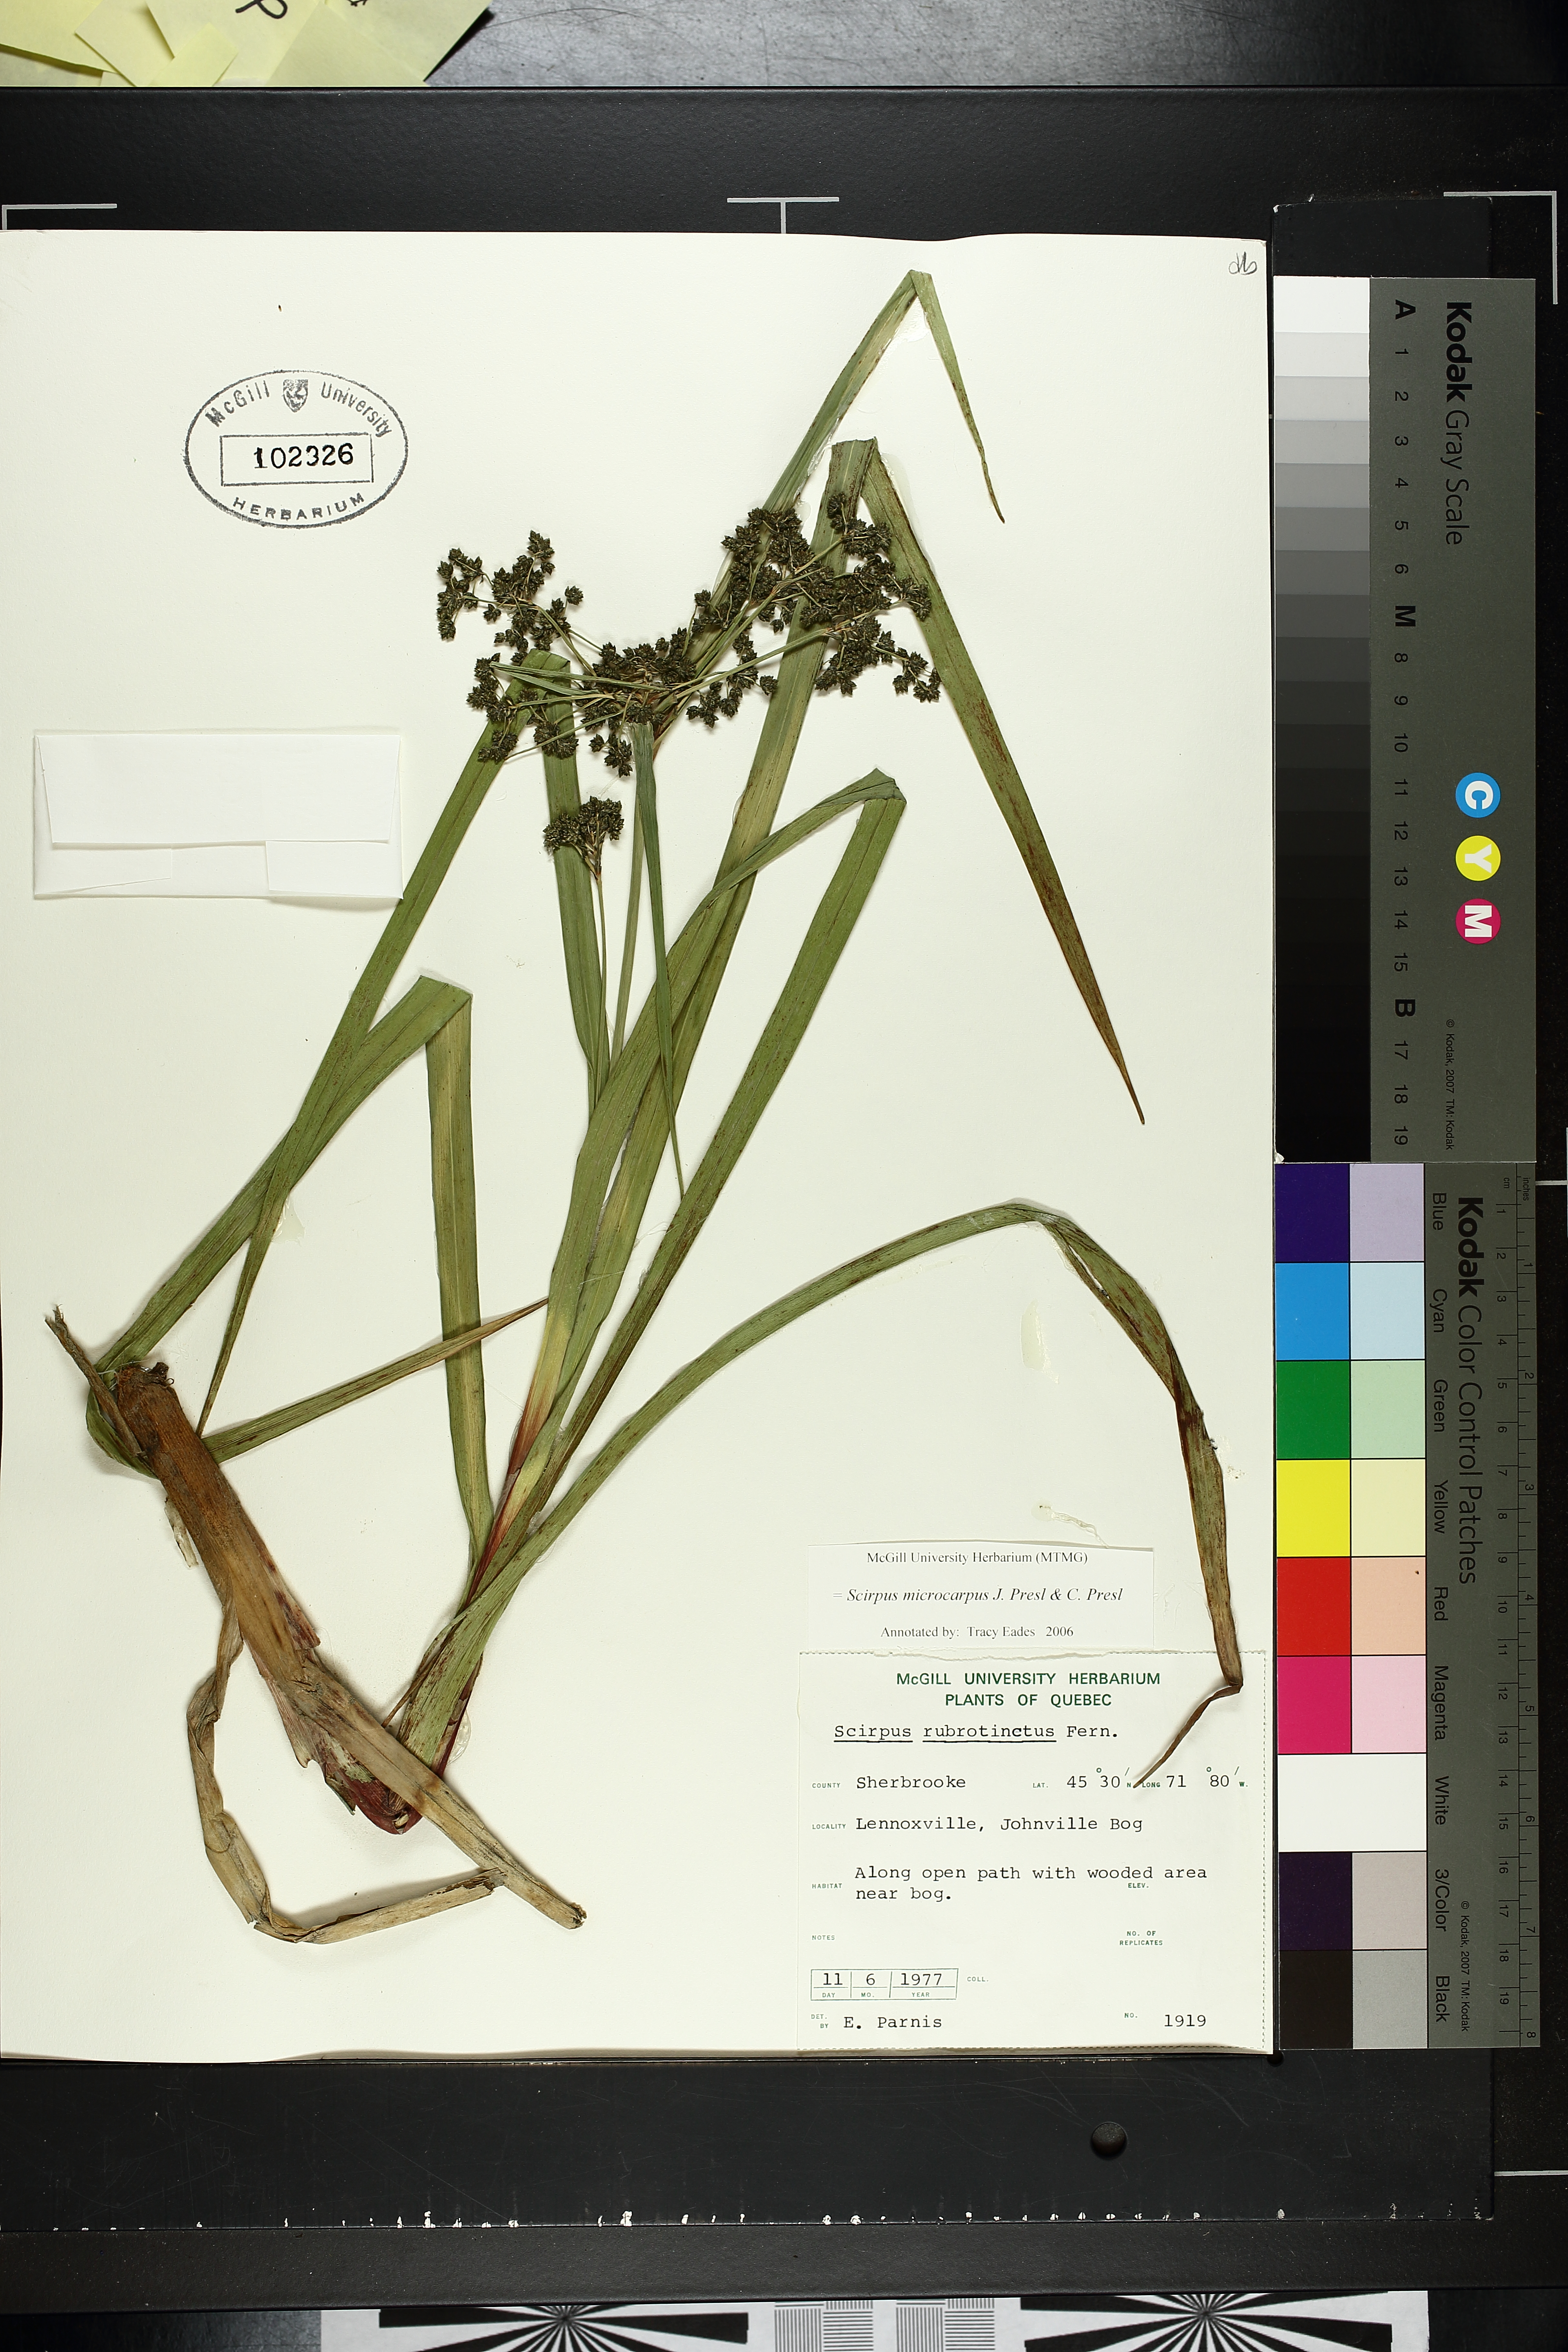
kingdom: Plantae
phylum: Tracheophyta
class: Liliopsida
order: Poales
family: Cyperaceae
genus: Cyperus
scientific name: Cyperus strigosus
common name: False nutsedge
